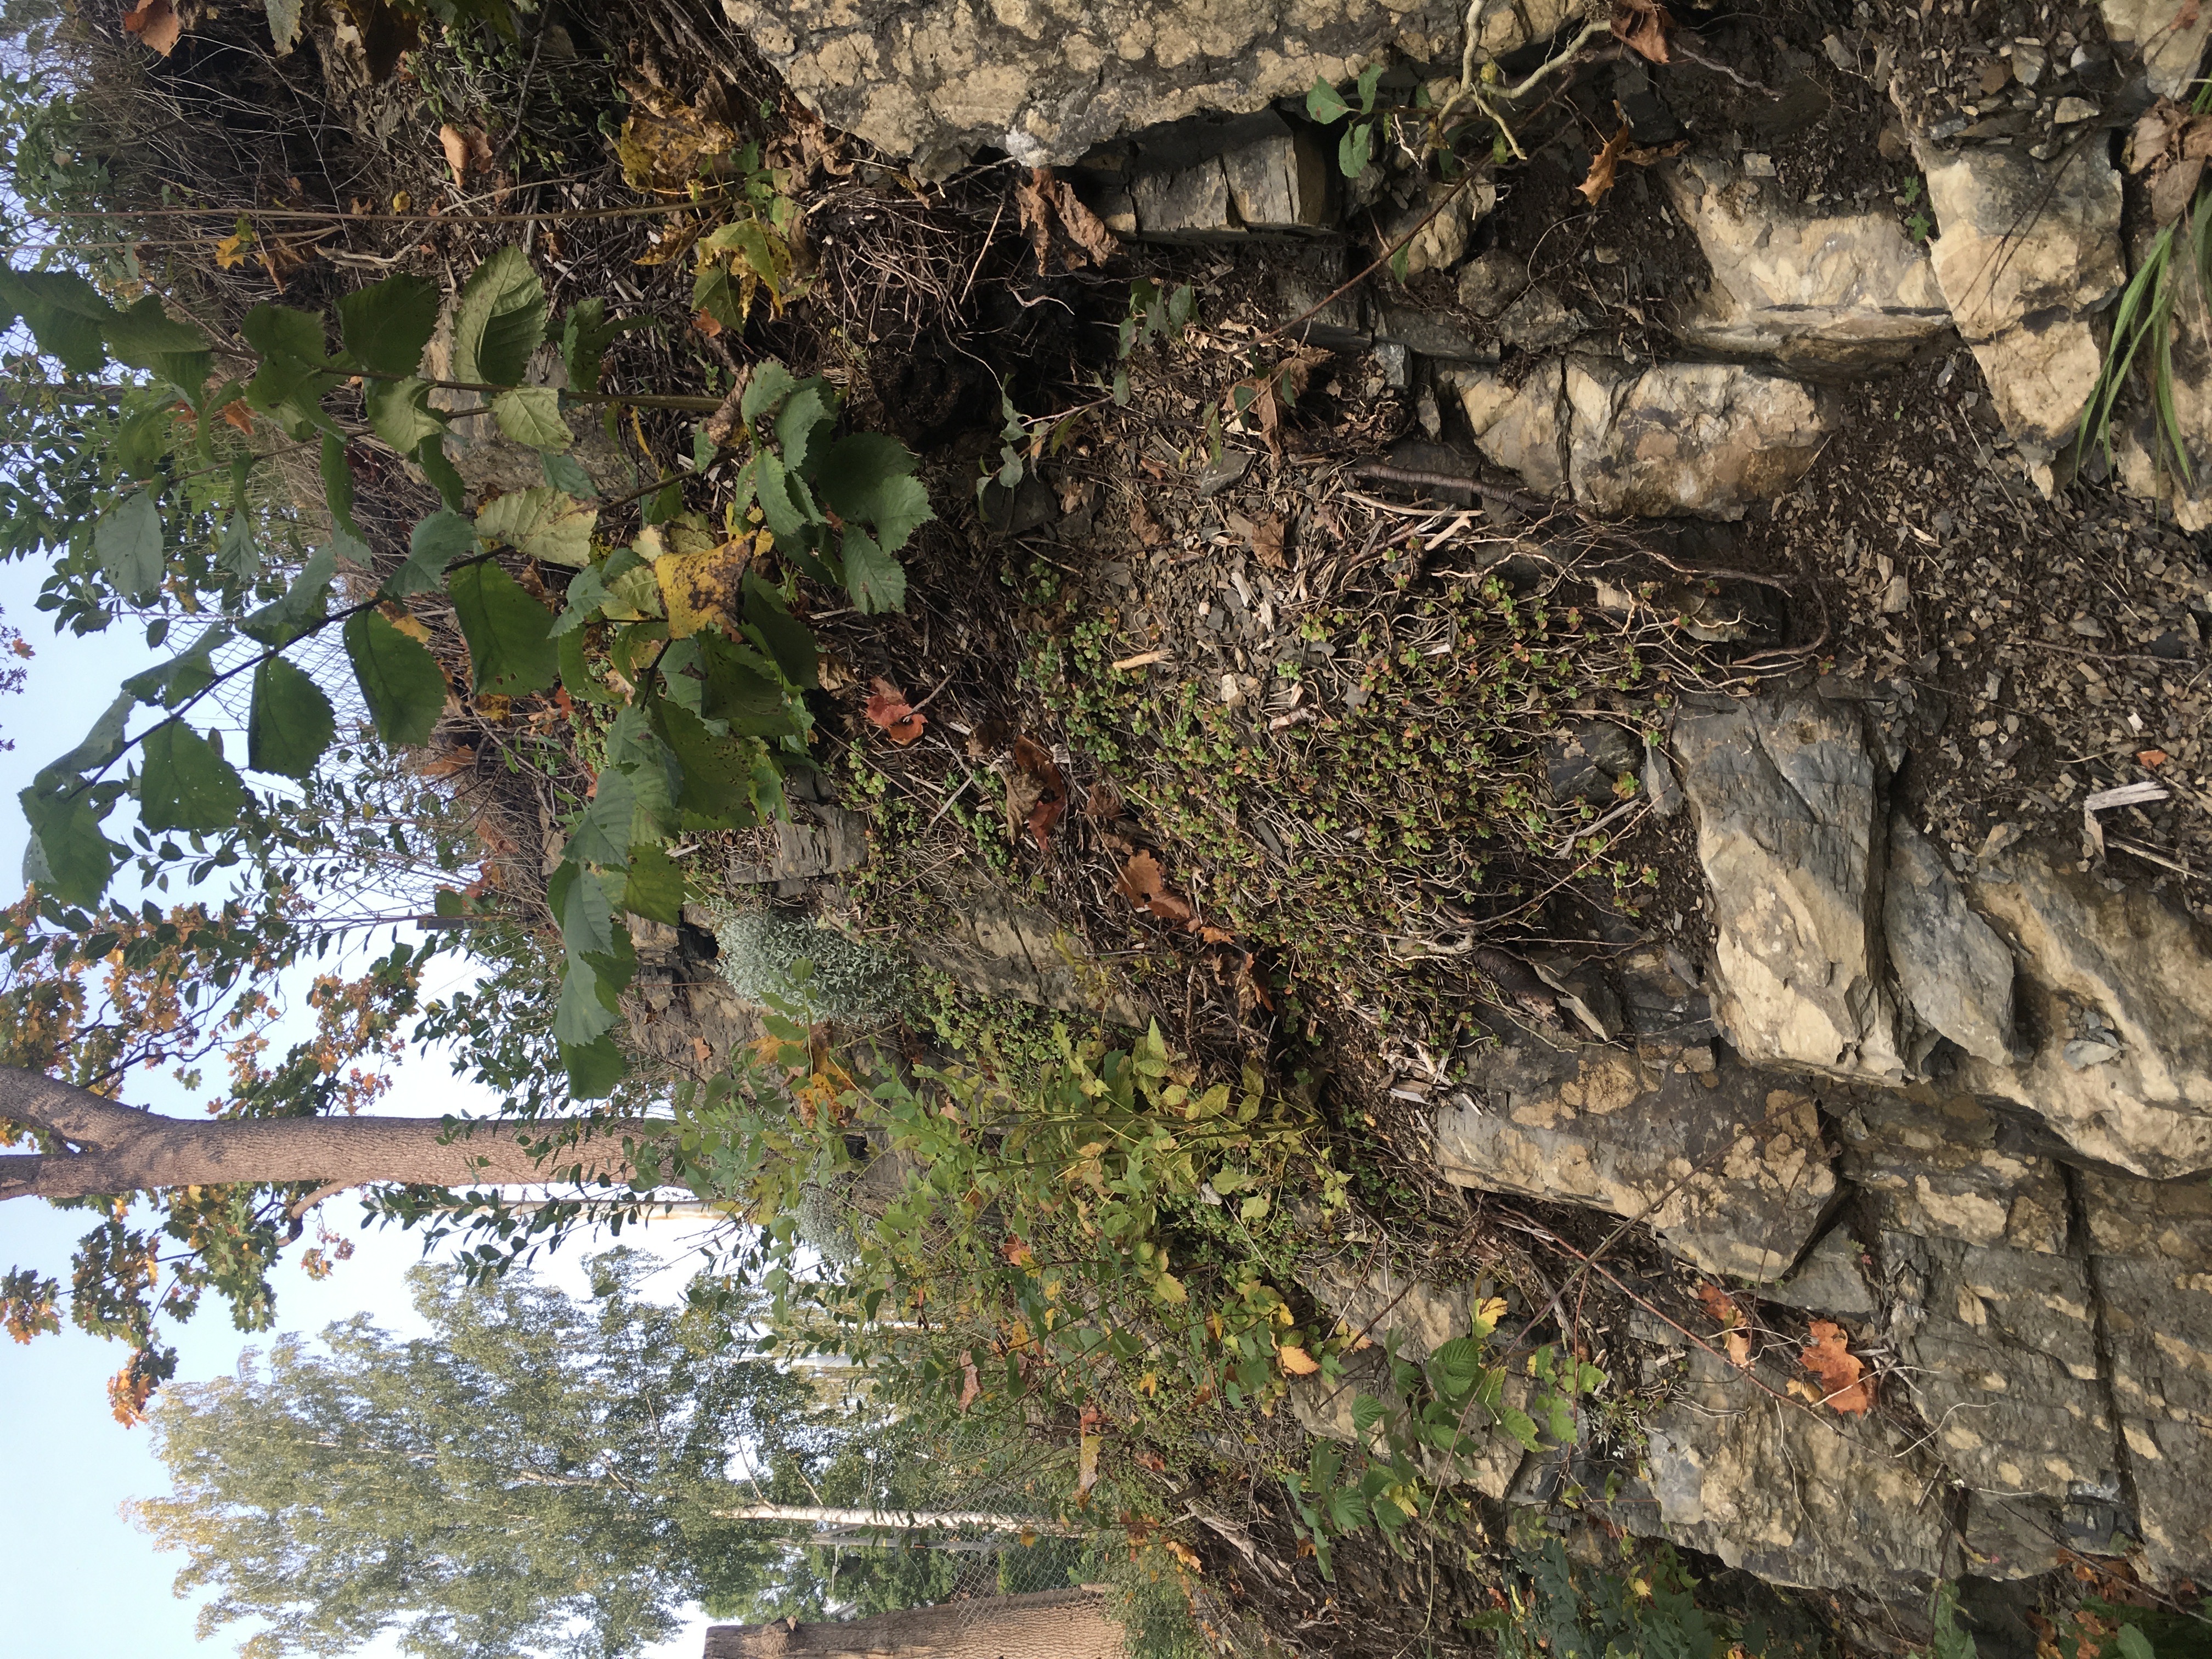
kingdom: Plantae
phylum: Tracheophyta
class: Magnoliopsida
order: Saxifragales
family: Crassulaceae
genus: Phedimus
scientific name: Phedimus spurius
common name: gravbergknapp
